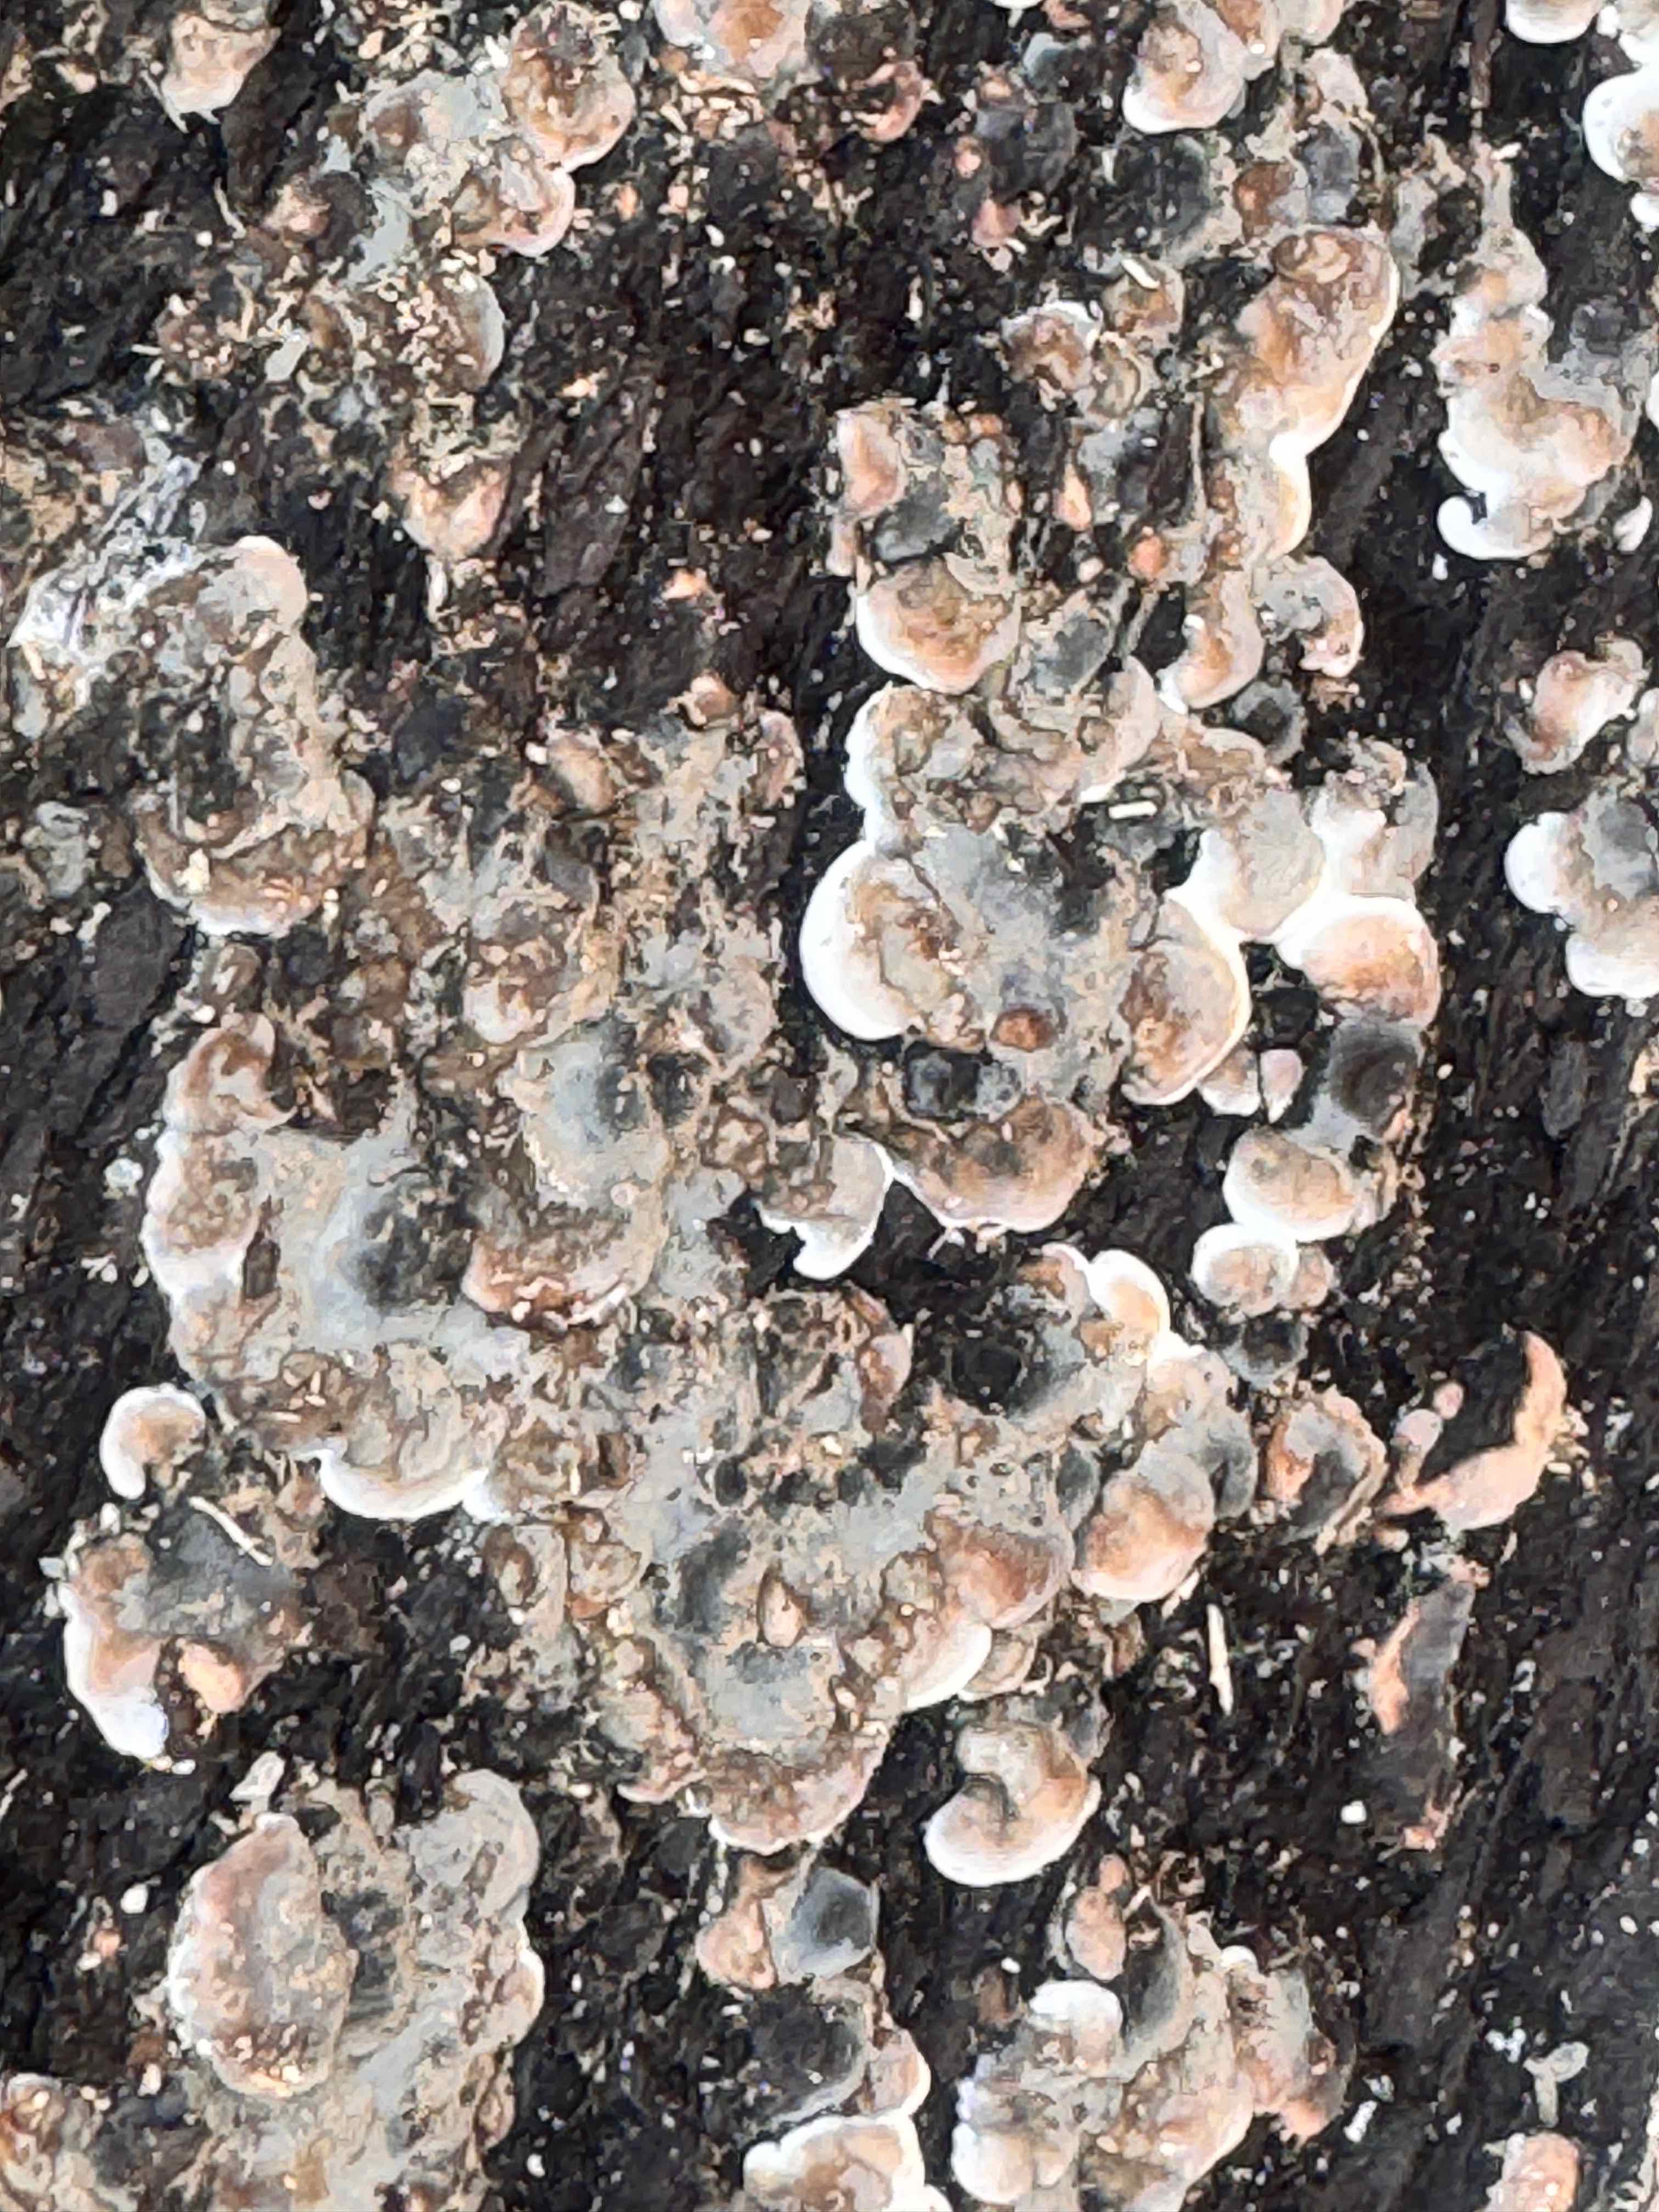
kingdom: Fungi
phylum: Ascomycota
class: Sordariomycetes
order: Xylariales
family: Xylariaceae
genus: Kretzschmaria
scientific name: Kretzschmaria deusta
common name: stor kulsvamp
